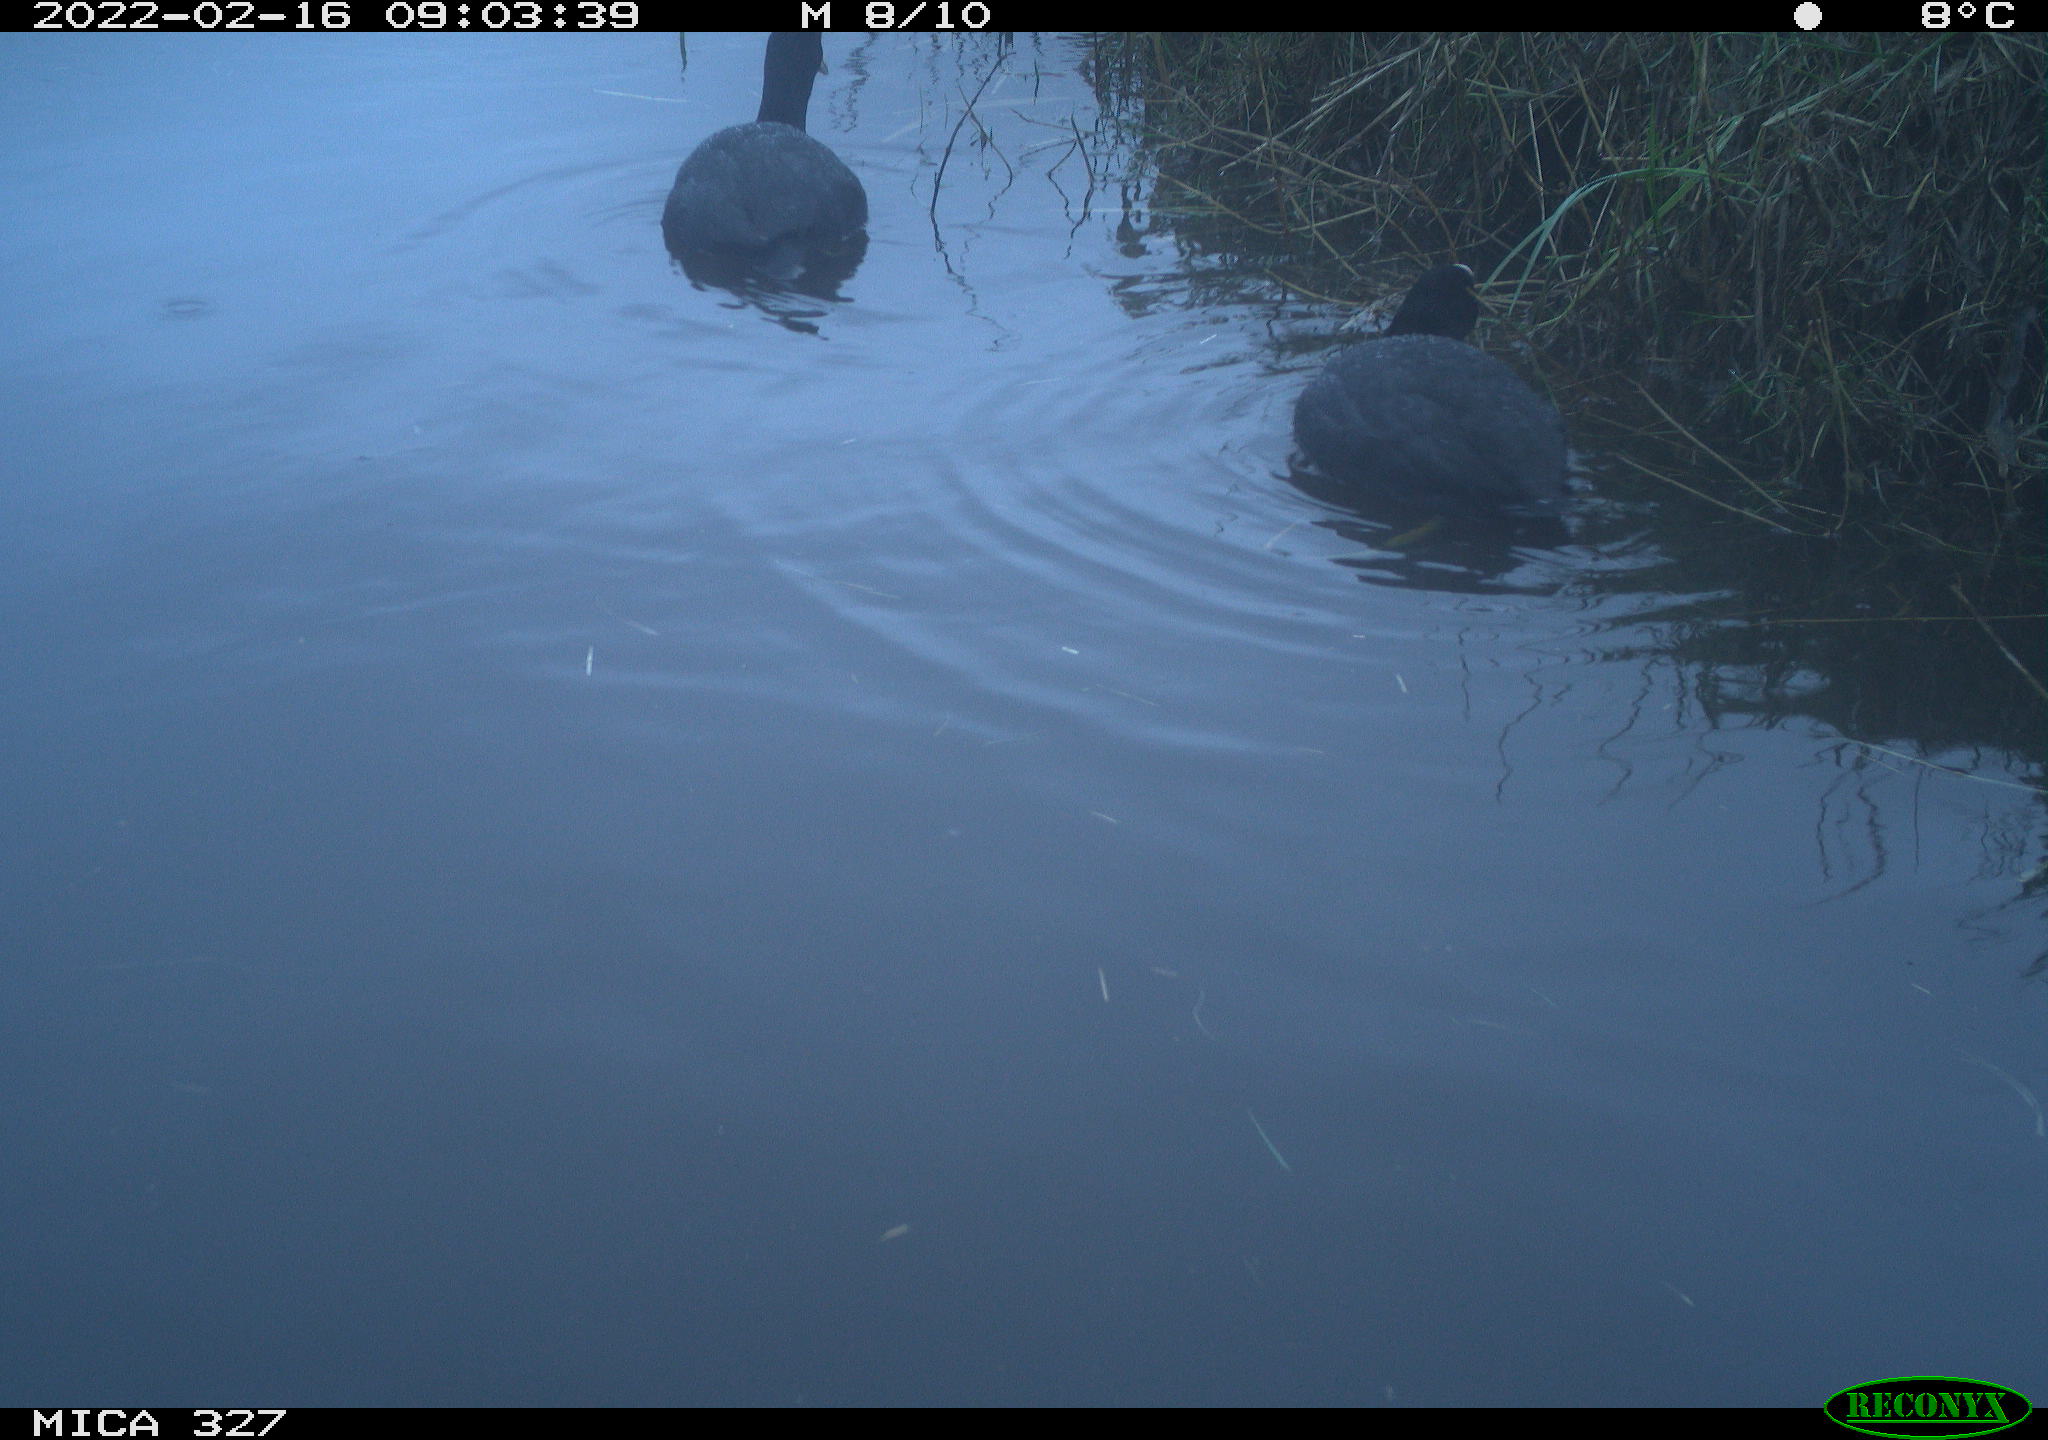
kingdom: Animalia
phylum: Chordata
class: Aves
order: Gruiformes
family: Rallidae
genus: Fulica
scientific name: Fulica atra
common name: Eurasian coot
